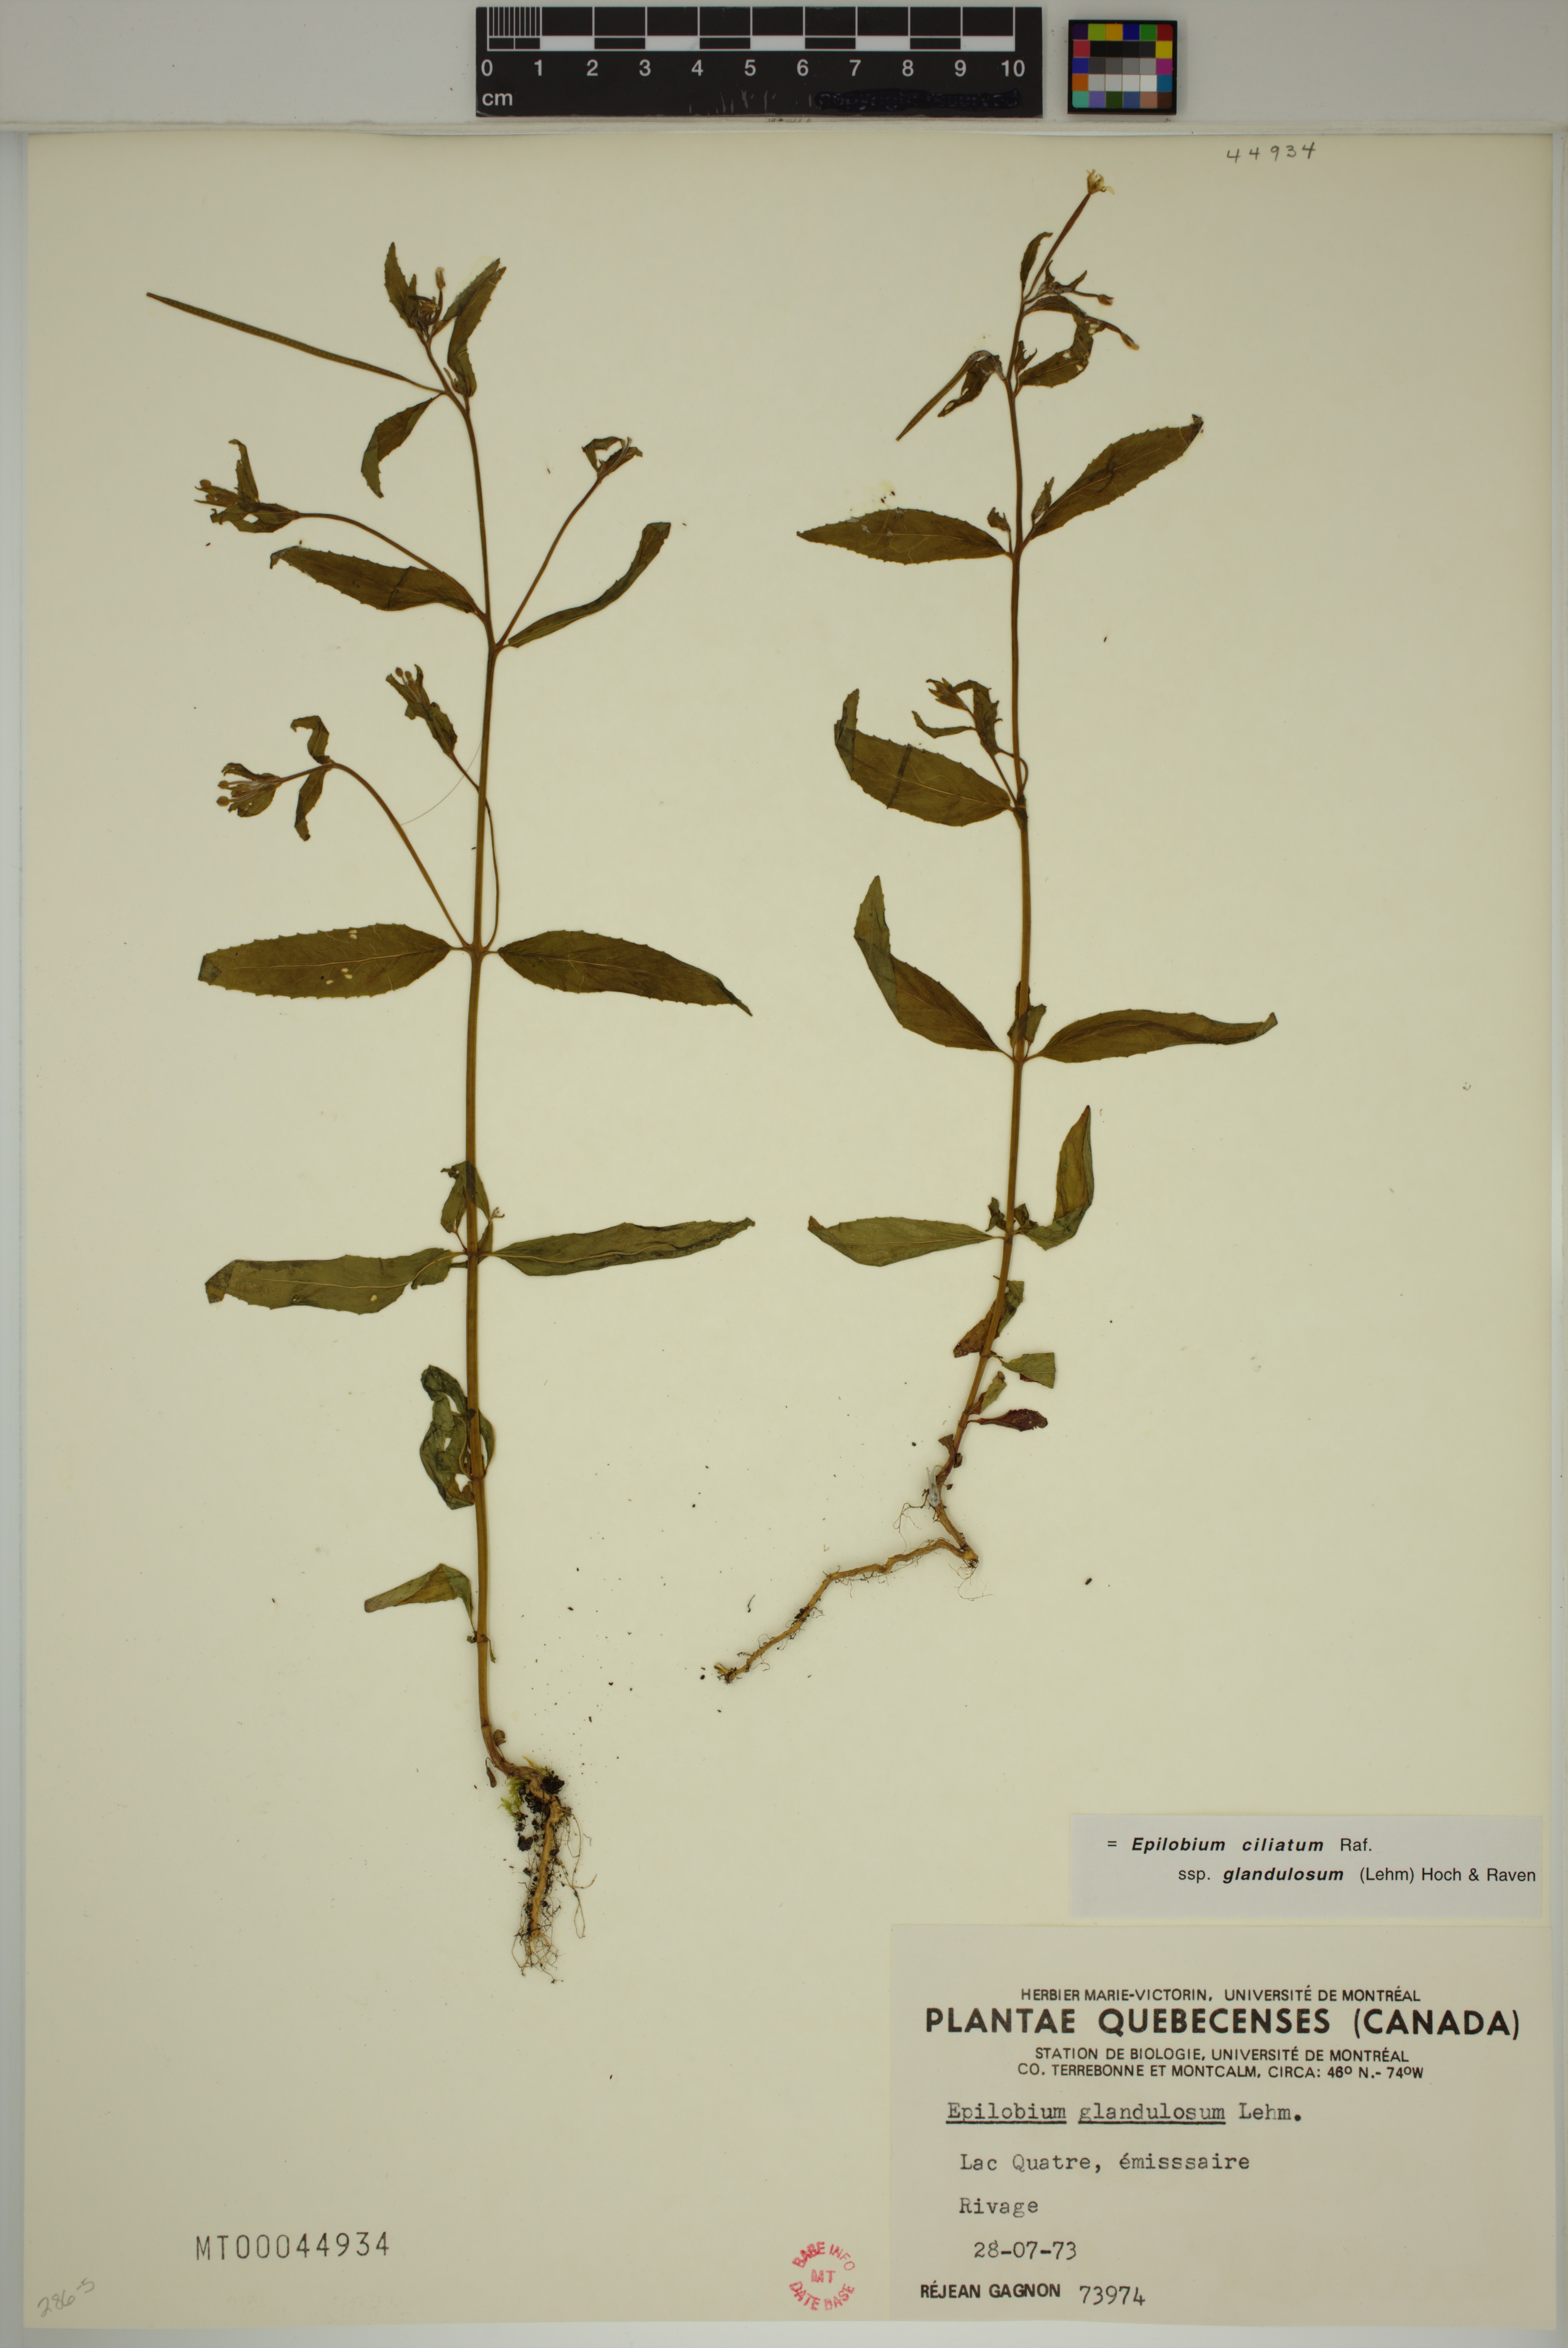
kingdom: Plantae
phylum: Tracheophyta
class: Magnoliopsida
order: Myrtales
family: Onagraceae
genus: Epilobium
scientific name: Epilobium ciliatum
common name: American willowherb
